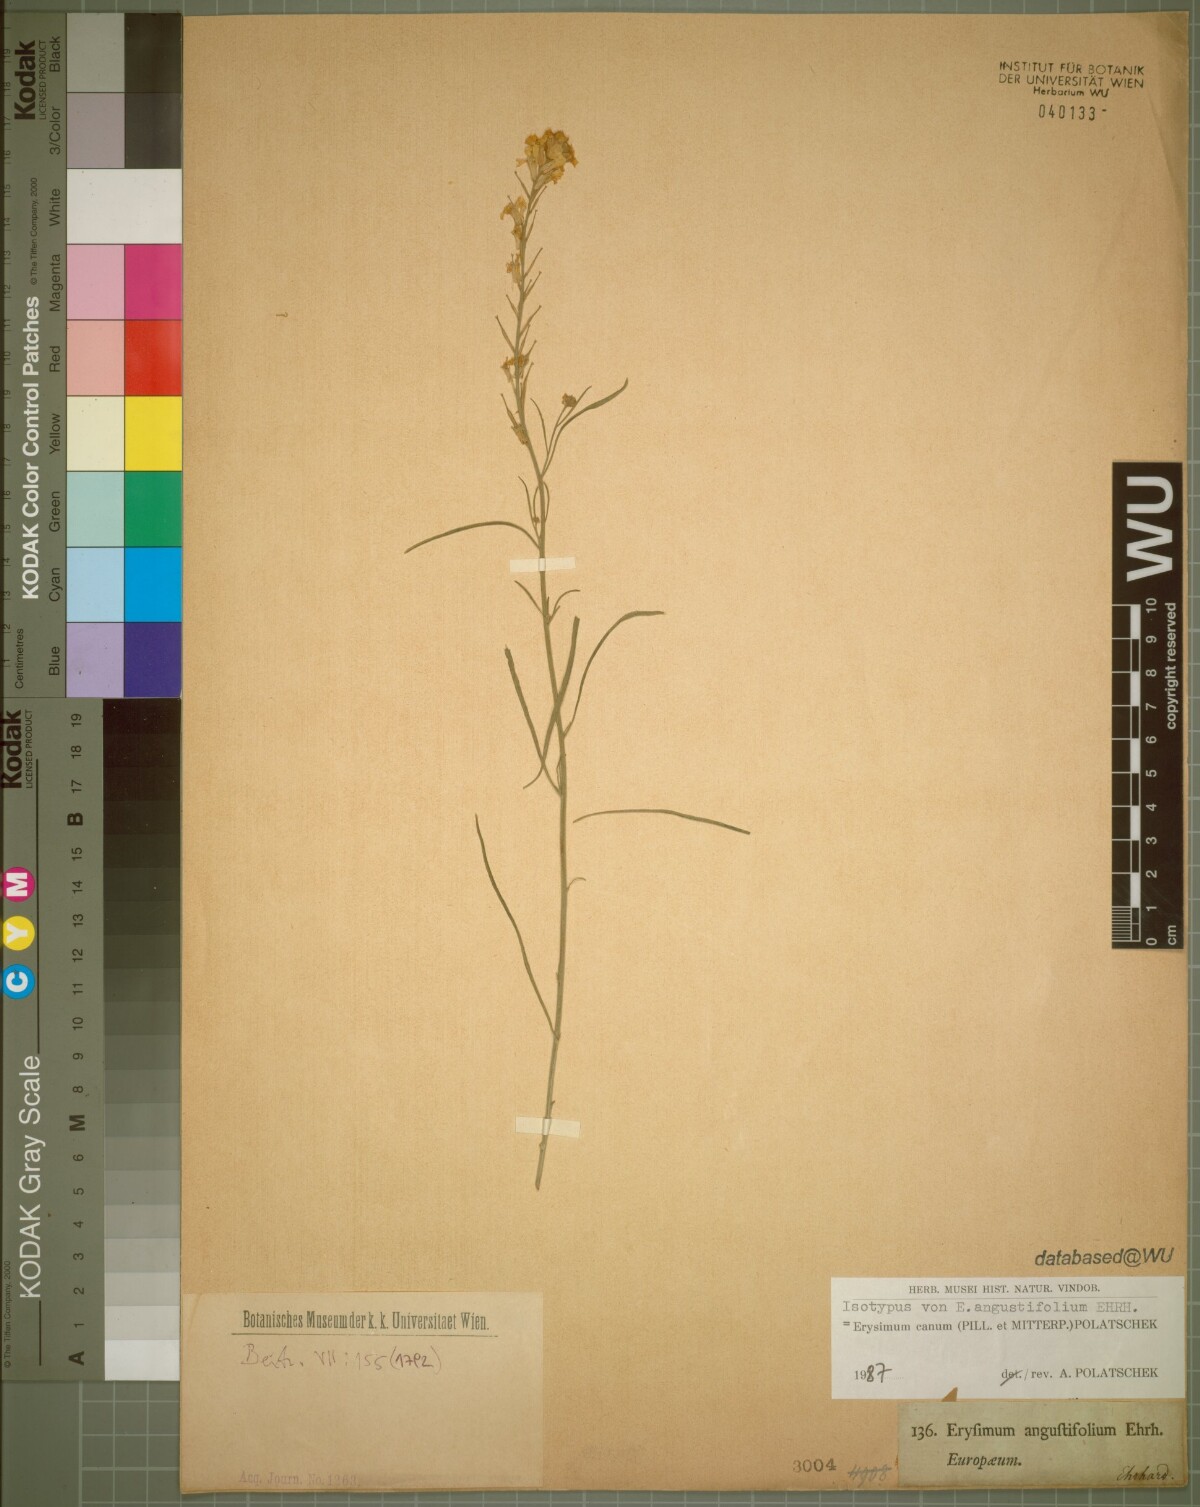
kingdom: Plantae
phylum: Tracheophyta
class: Magnoliopsida
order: Brassicales
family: Brassicaceae
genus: Erysimum
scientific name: Erysimum canum
